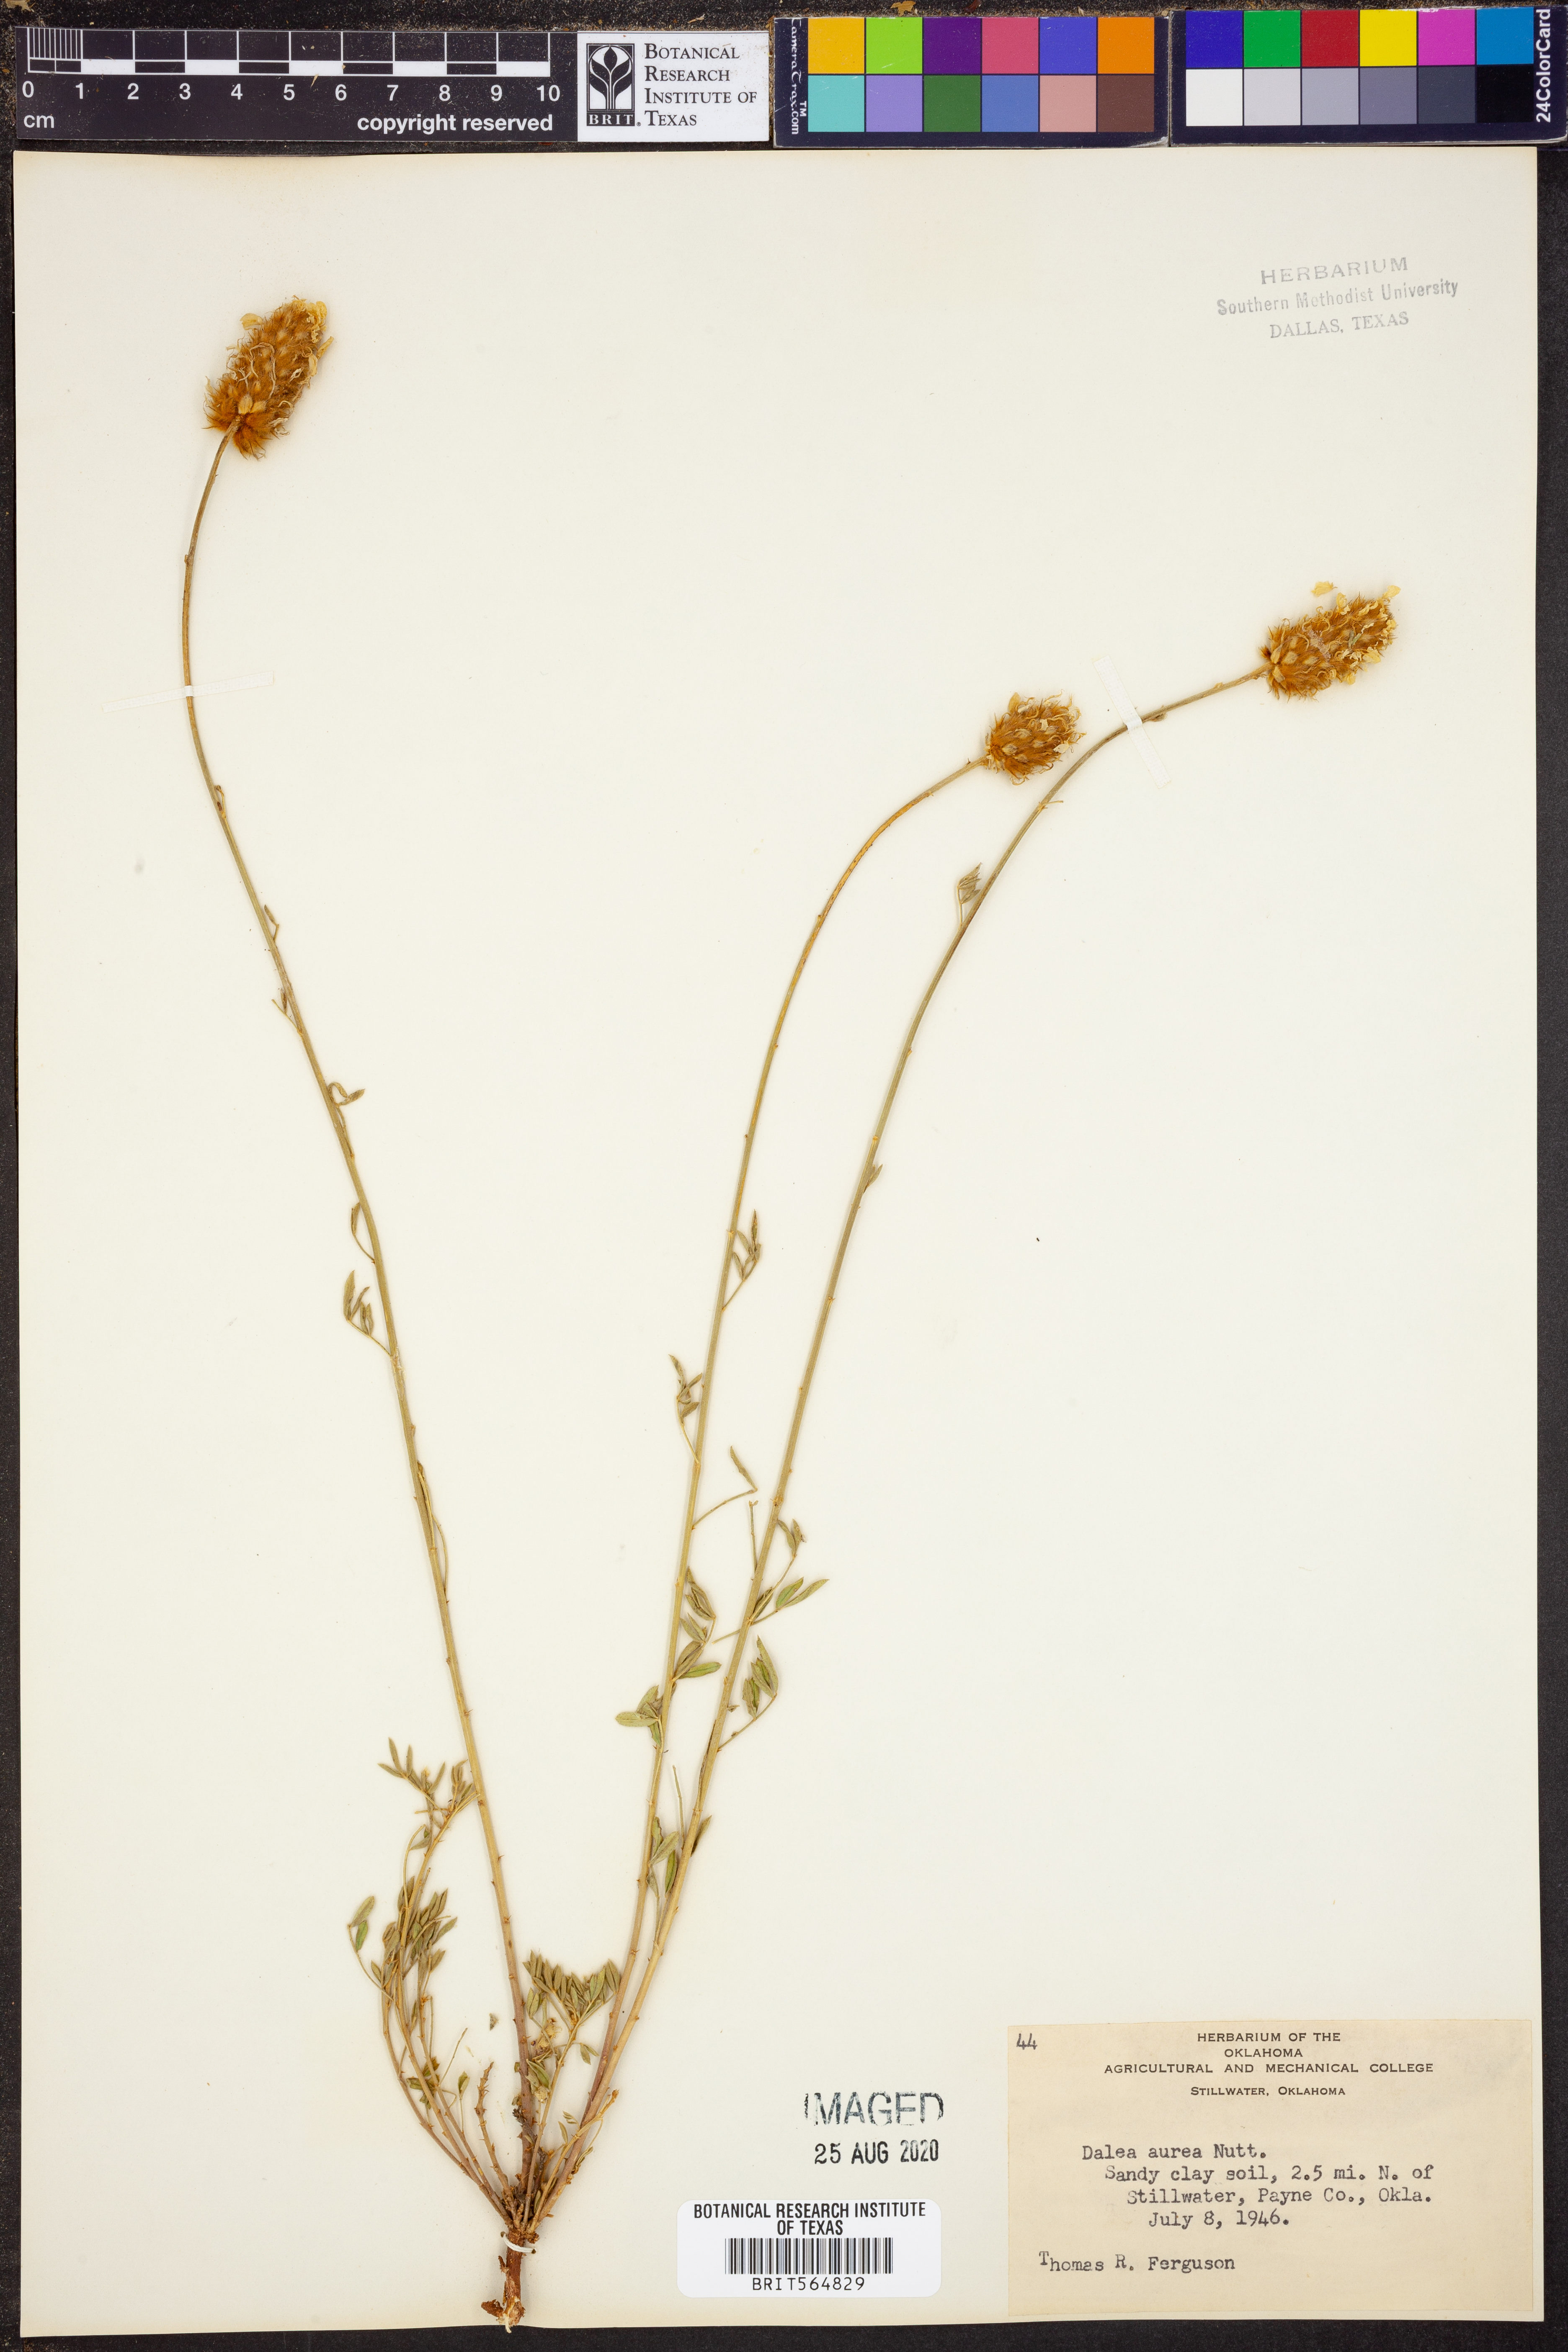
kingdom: Plantae
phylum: Tracheophyta
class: Magnoliopsida
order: Fabales
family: Fabaceae
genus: Dalea
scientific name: Dalea aurea
